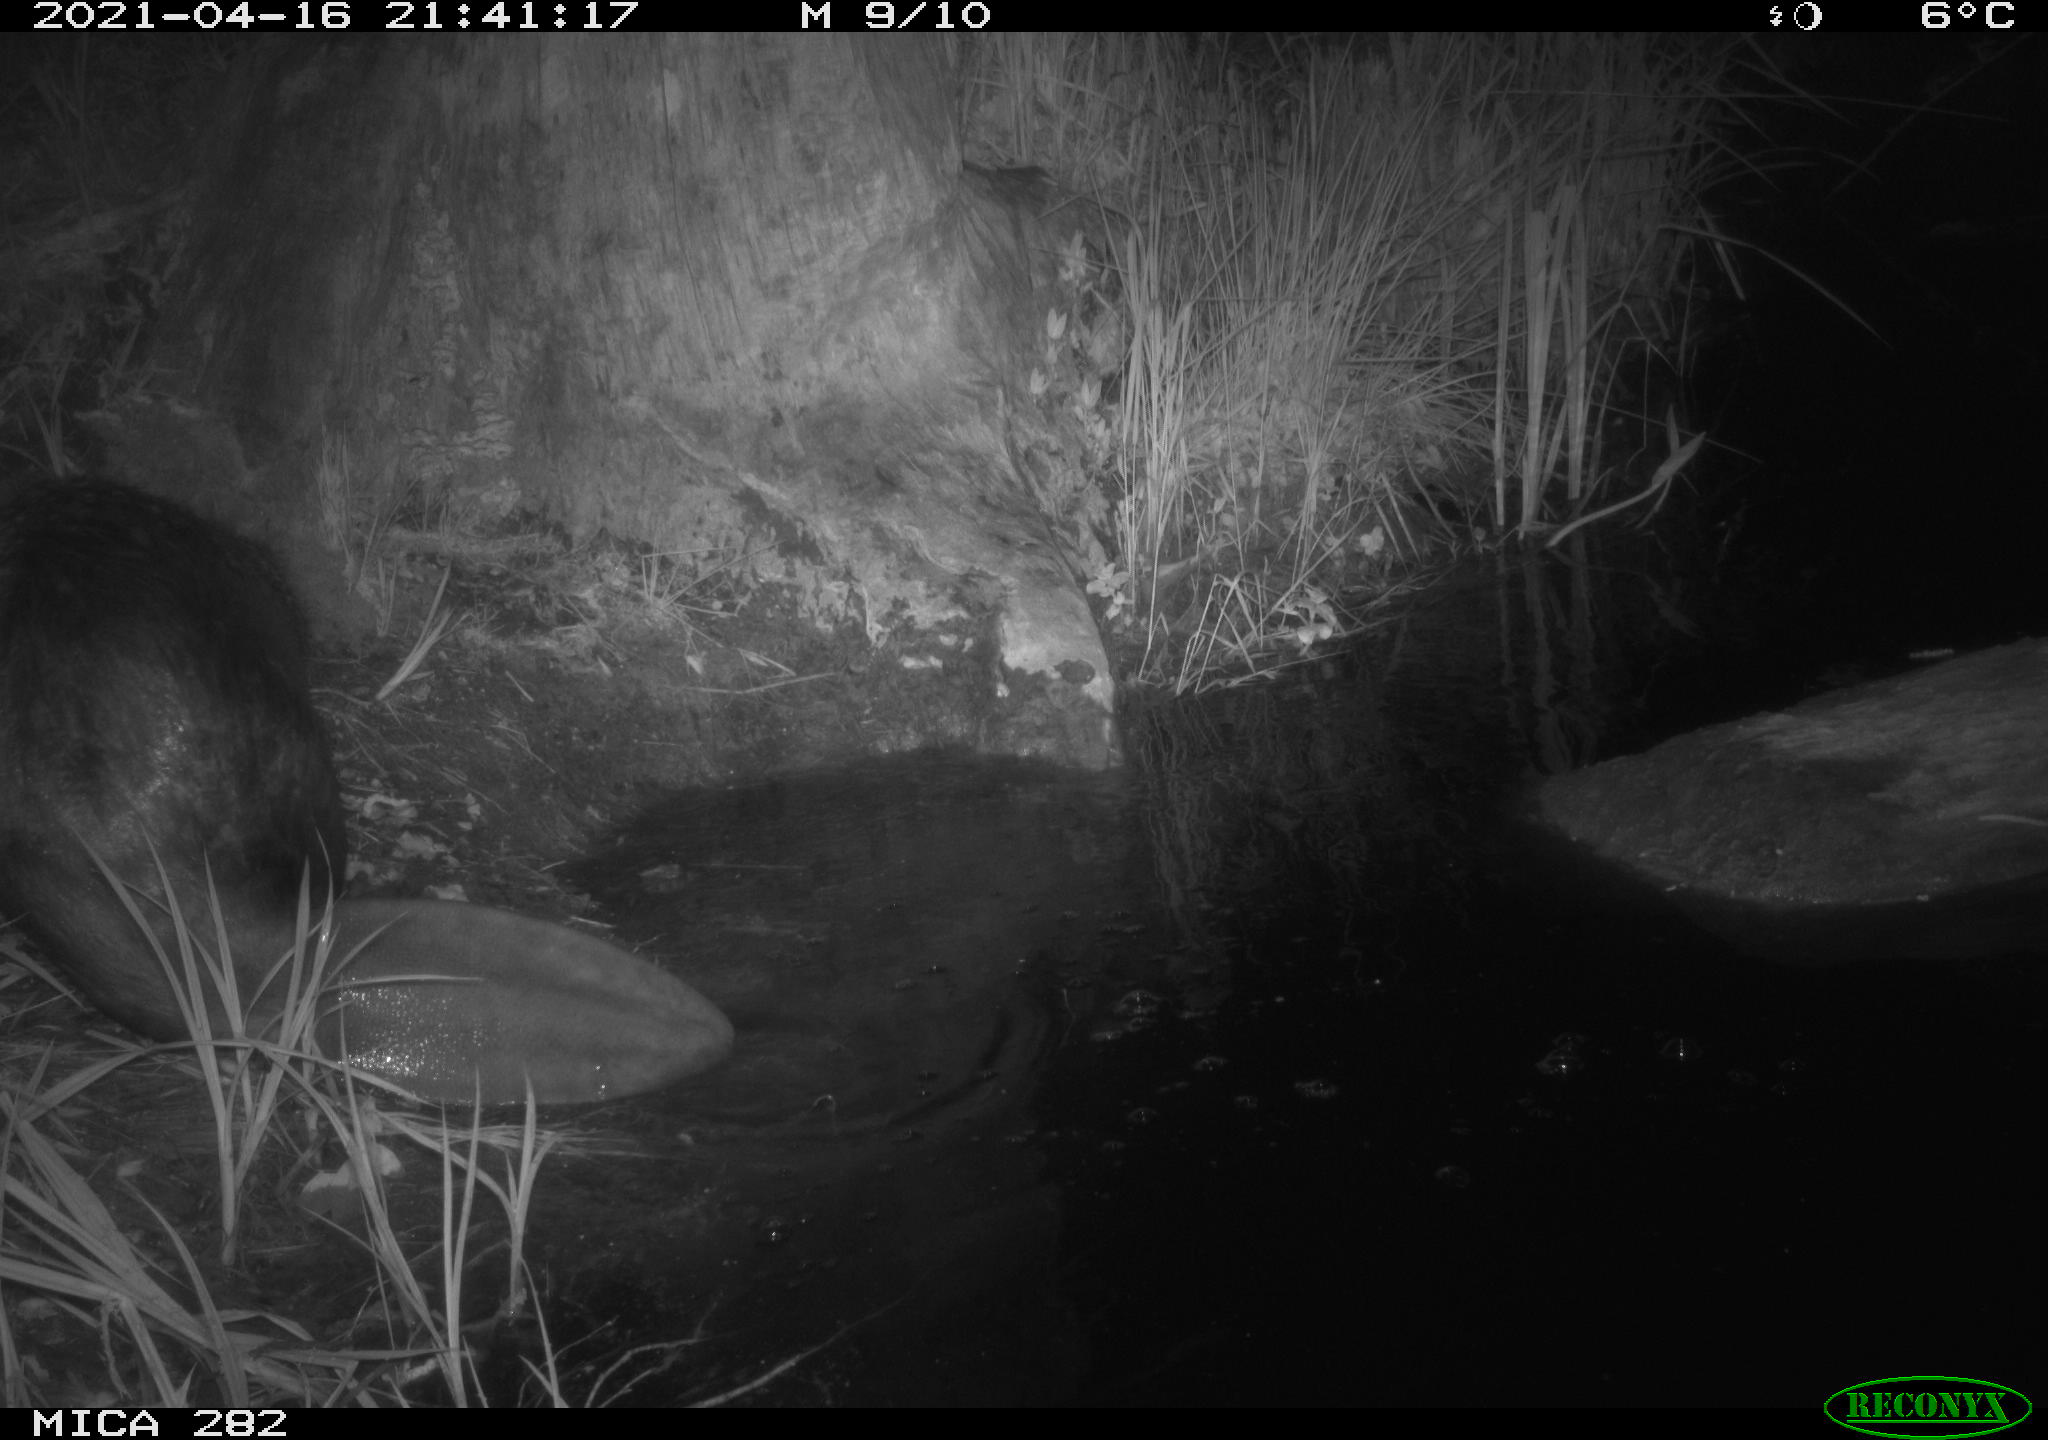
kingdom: Animalia
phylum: Chordata
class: Mammalia
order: Rodentia
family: Castoridae
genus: Castor
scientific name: Castor fiber
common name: Eurasian beaver
